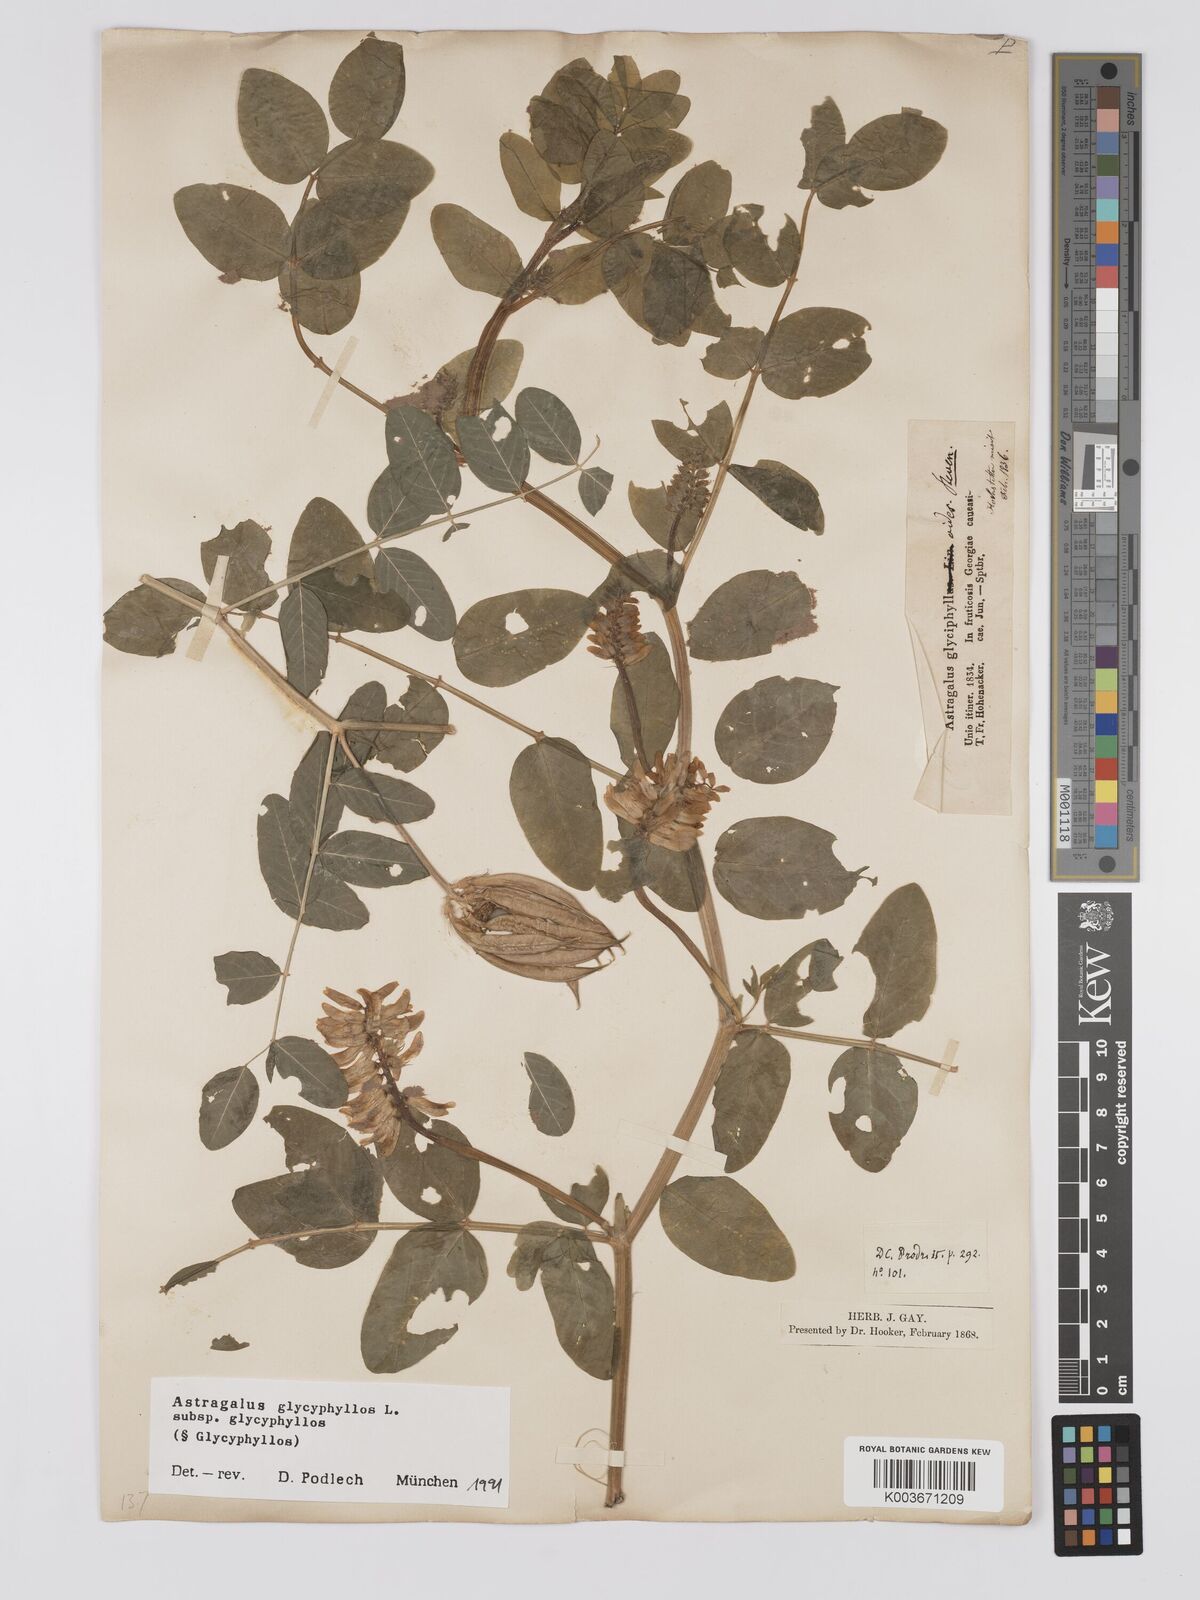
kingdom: Plantae
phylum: Tracheophyta
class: Magnoliopsida
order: Fabales
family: Fabaceae
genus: Astragalus
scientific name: Astragalus glycyphyllos
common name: Wild liquorice
